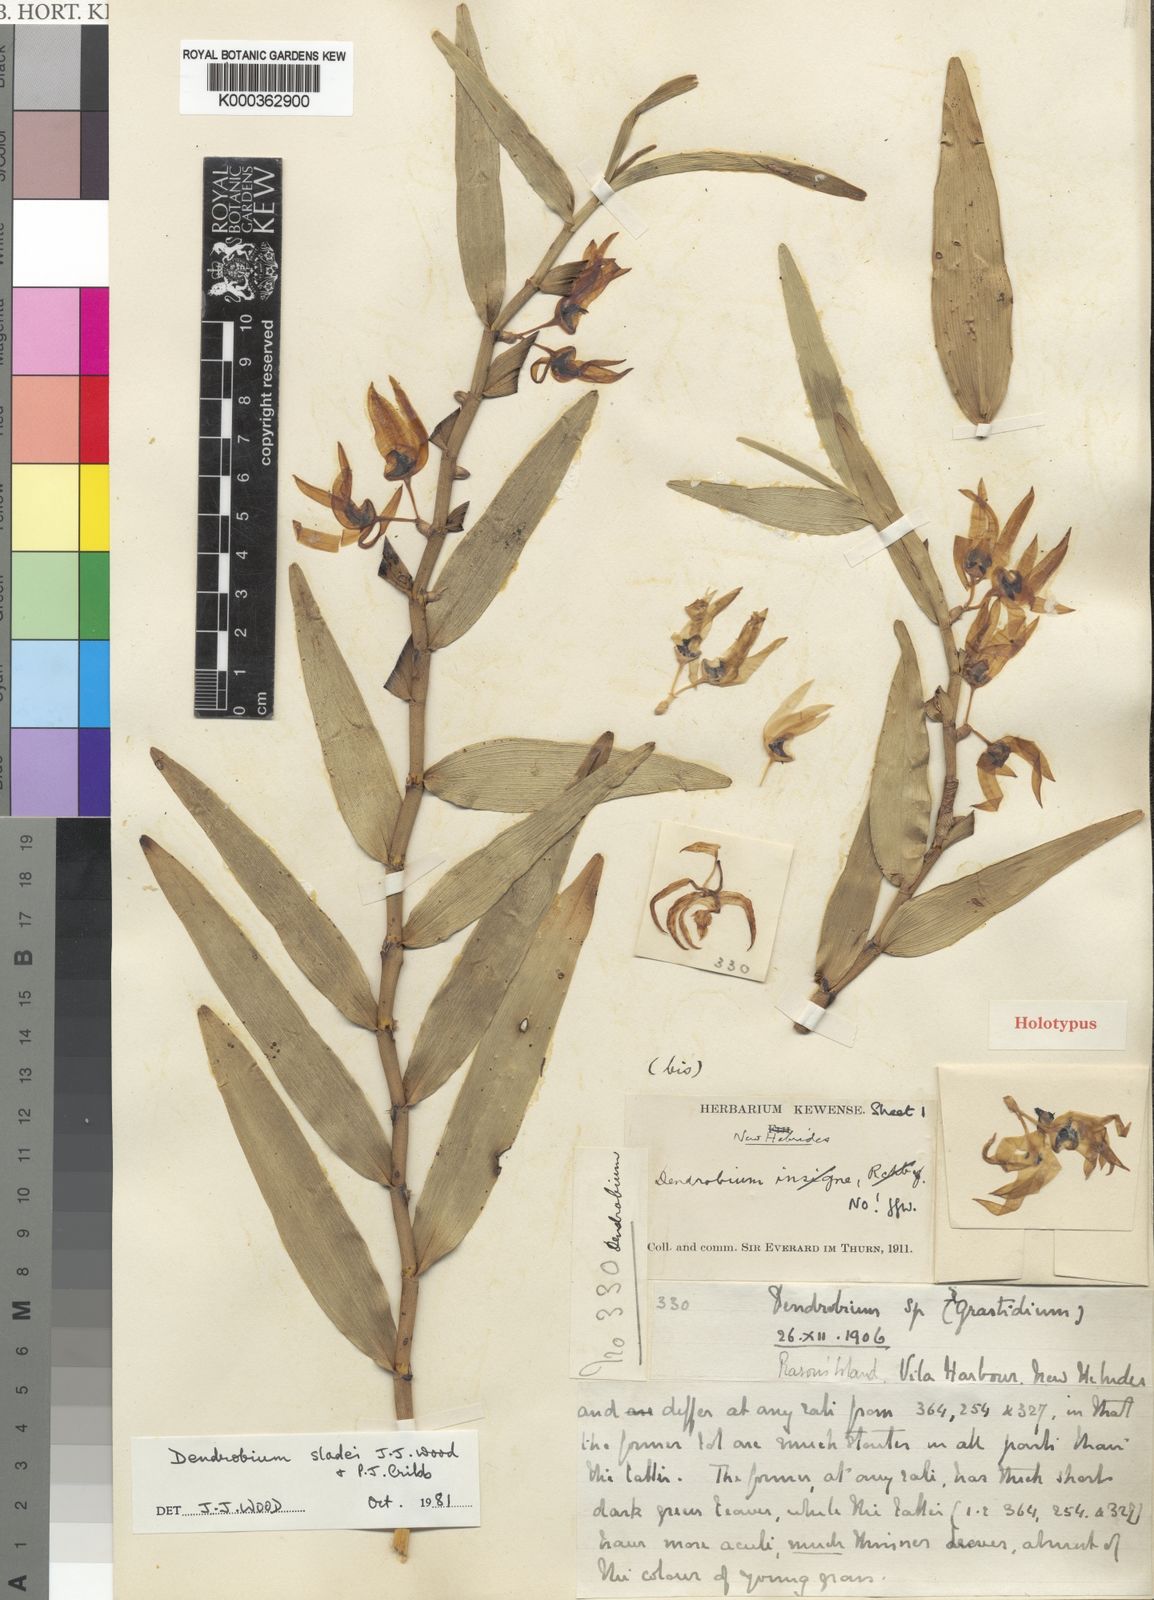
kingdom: Plantae
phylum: Tracheophyta
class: Liliopsida
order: Asparagales
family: Orchidaceae
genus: Dendrobium
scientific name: Dendrobium sladei
